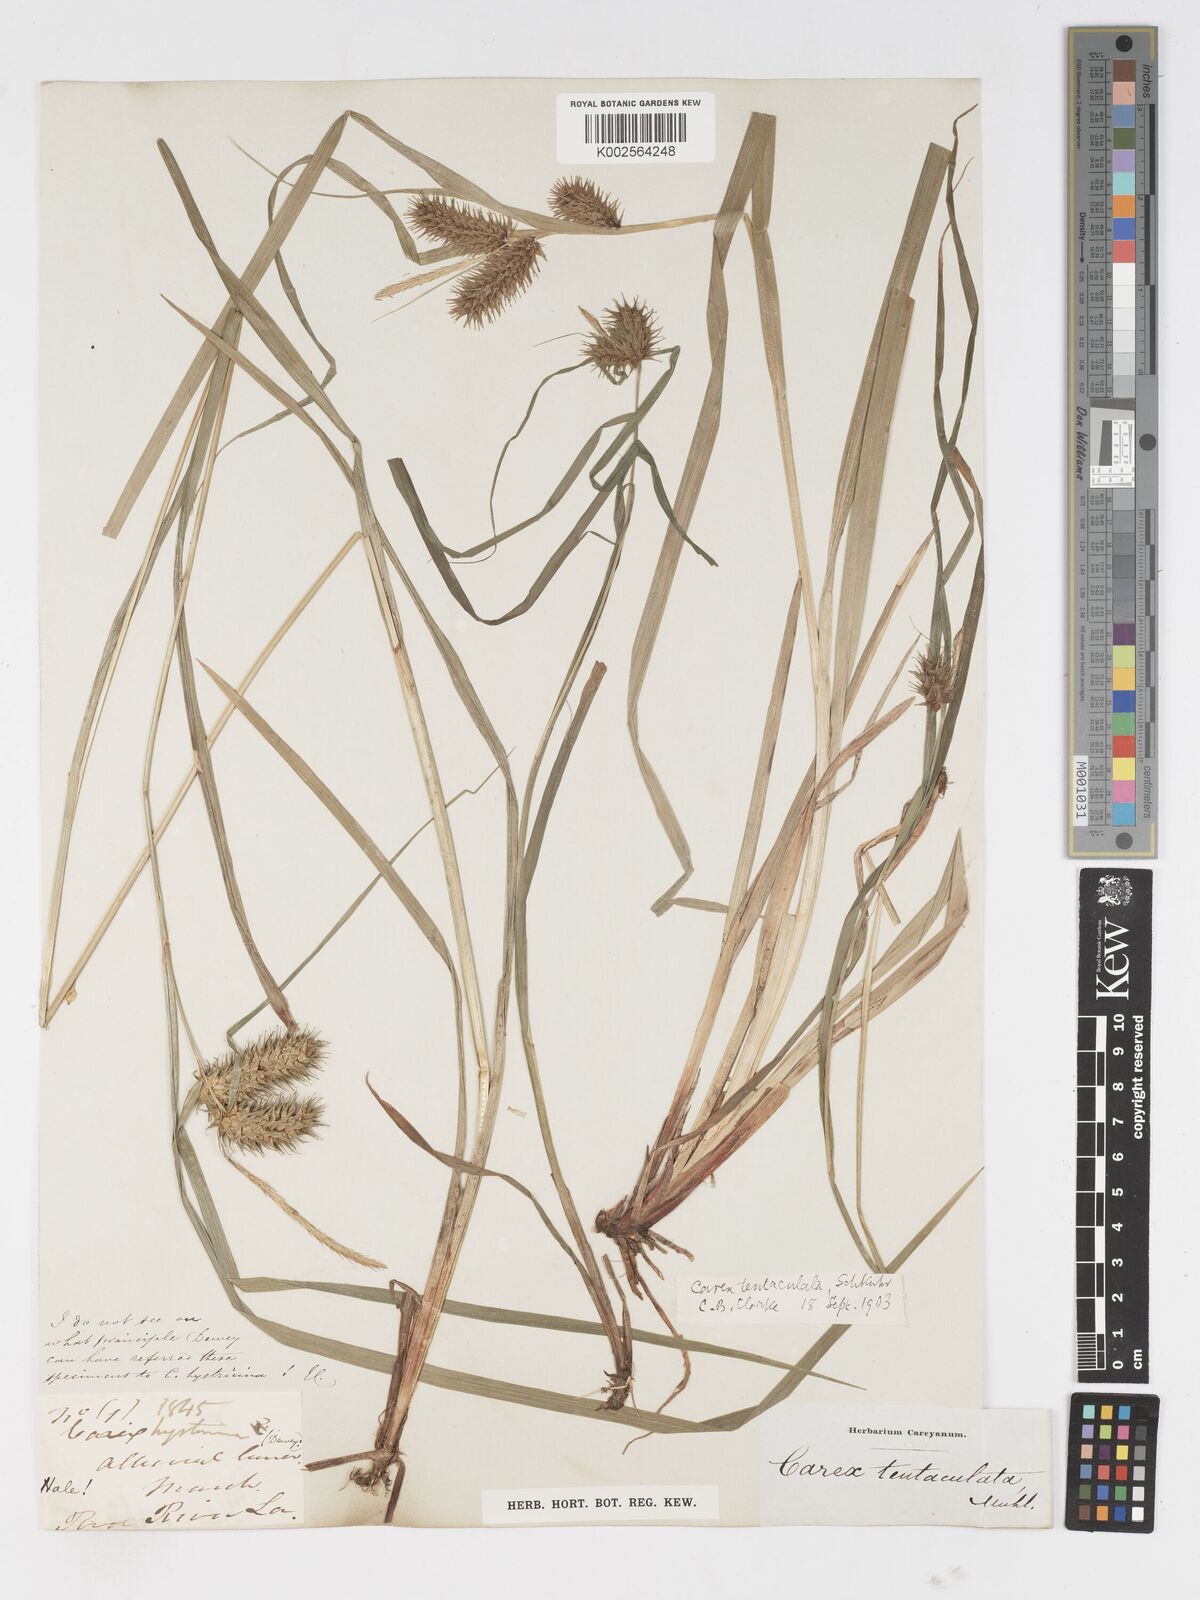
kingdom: Plantae
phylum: Tracheophyta
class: Liliopsida
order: Poales
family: Cyperaceae
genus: Carex
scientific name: Carex lurida
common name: Sallow sedge
